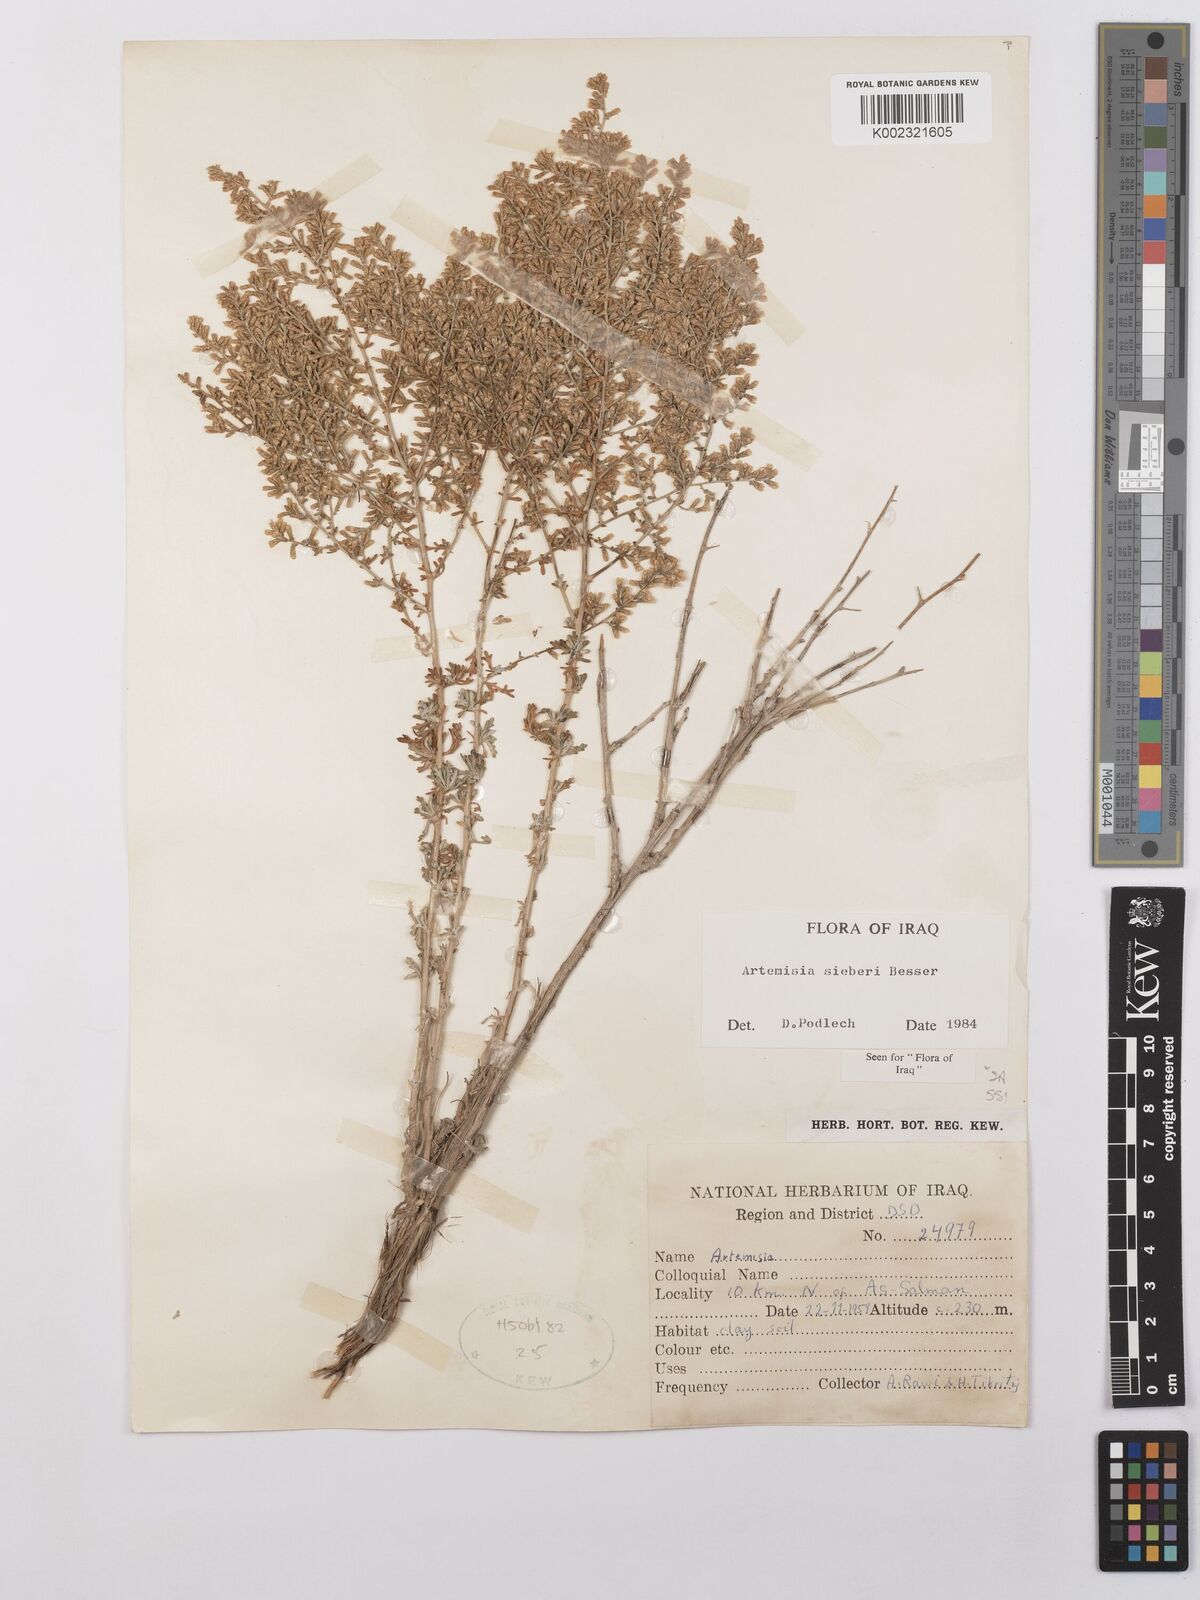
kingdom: Plantae
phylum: Tracheophyta
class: Magnoliopsida
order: Asterales
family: Asteraceae
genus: Artemisia
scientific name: Artemisia sieberi
